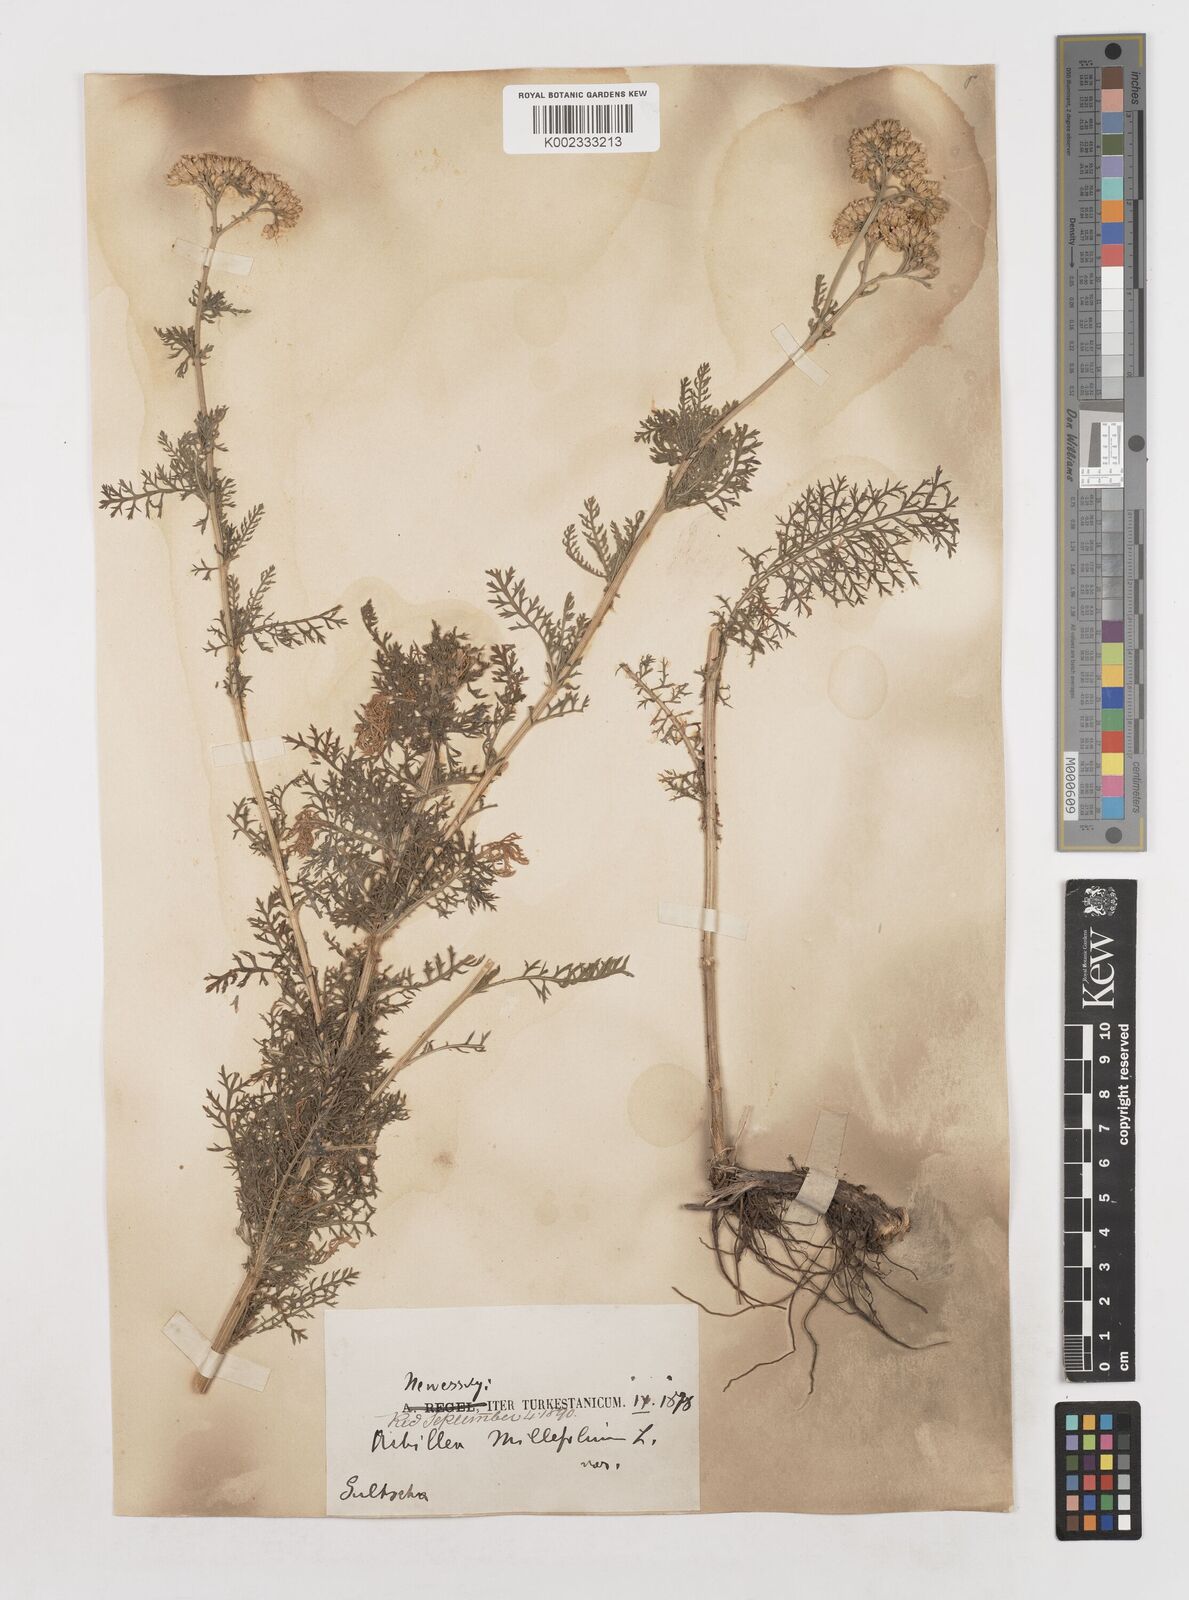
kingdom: Plantae
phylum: Tracheophyta
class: Magnoliopsida
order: Asterales
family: Asteraceae
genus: Achillea
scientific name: Achillea millefolium
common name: Yarrow
